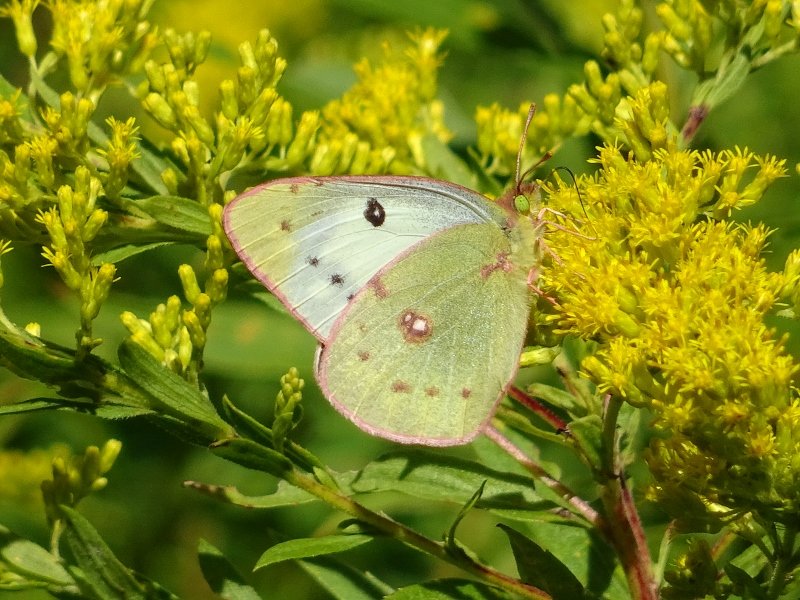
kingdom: Animalia
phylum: Arthropoda
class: Insecta
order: Lepidoptera
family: Pieridae
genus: Colias
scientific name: Colias philodice
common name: Clouded Sulphur
